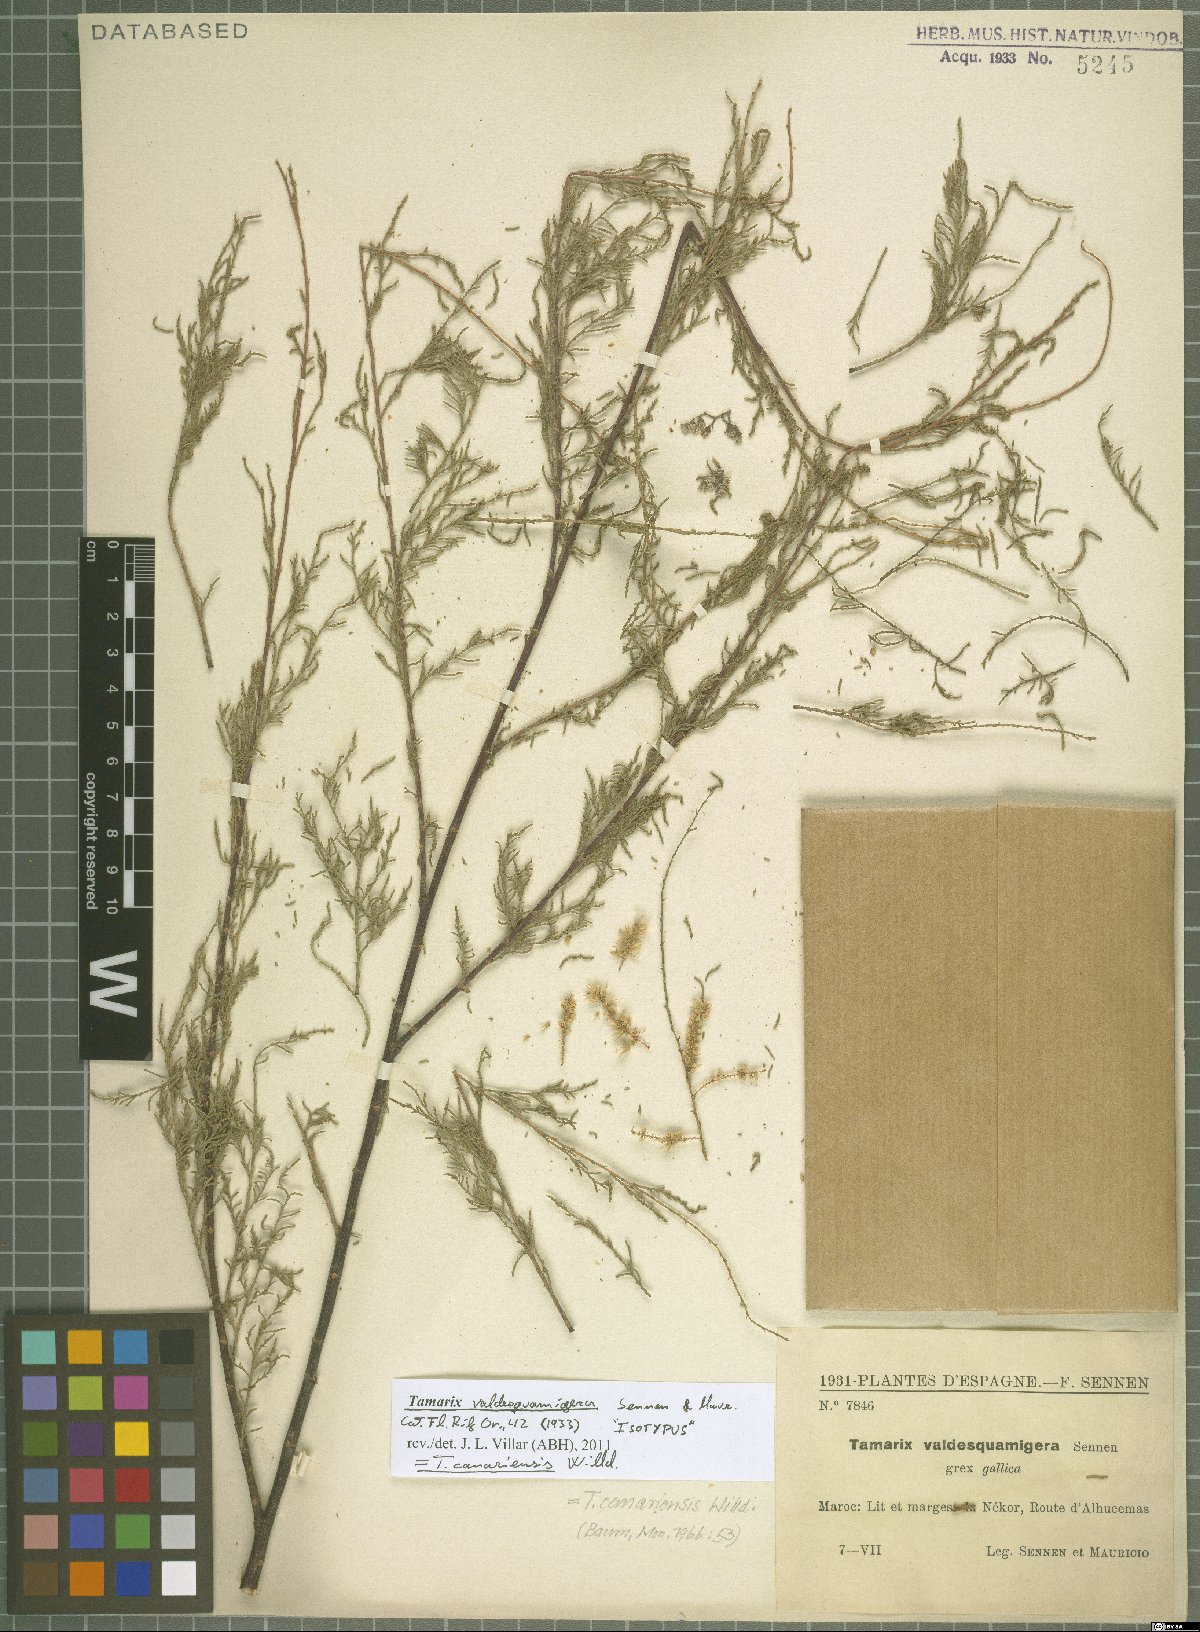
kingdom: Plantae
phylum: Tracheophyta
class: Magnoliopsida
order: Caryophyllales
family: Tamaricaceae
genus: Tamarix
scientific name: Tamarix canariensis
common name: Canary island tamarisk
